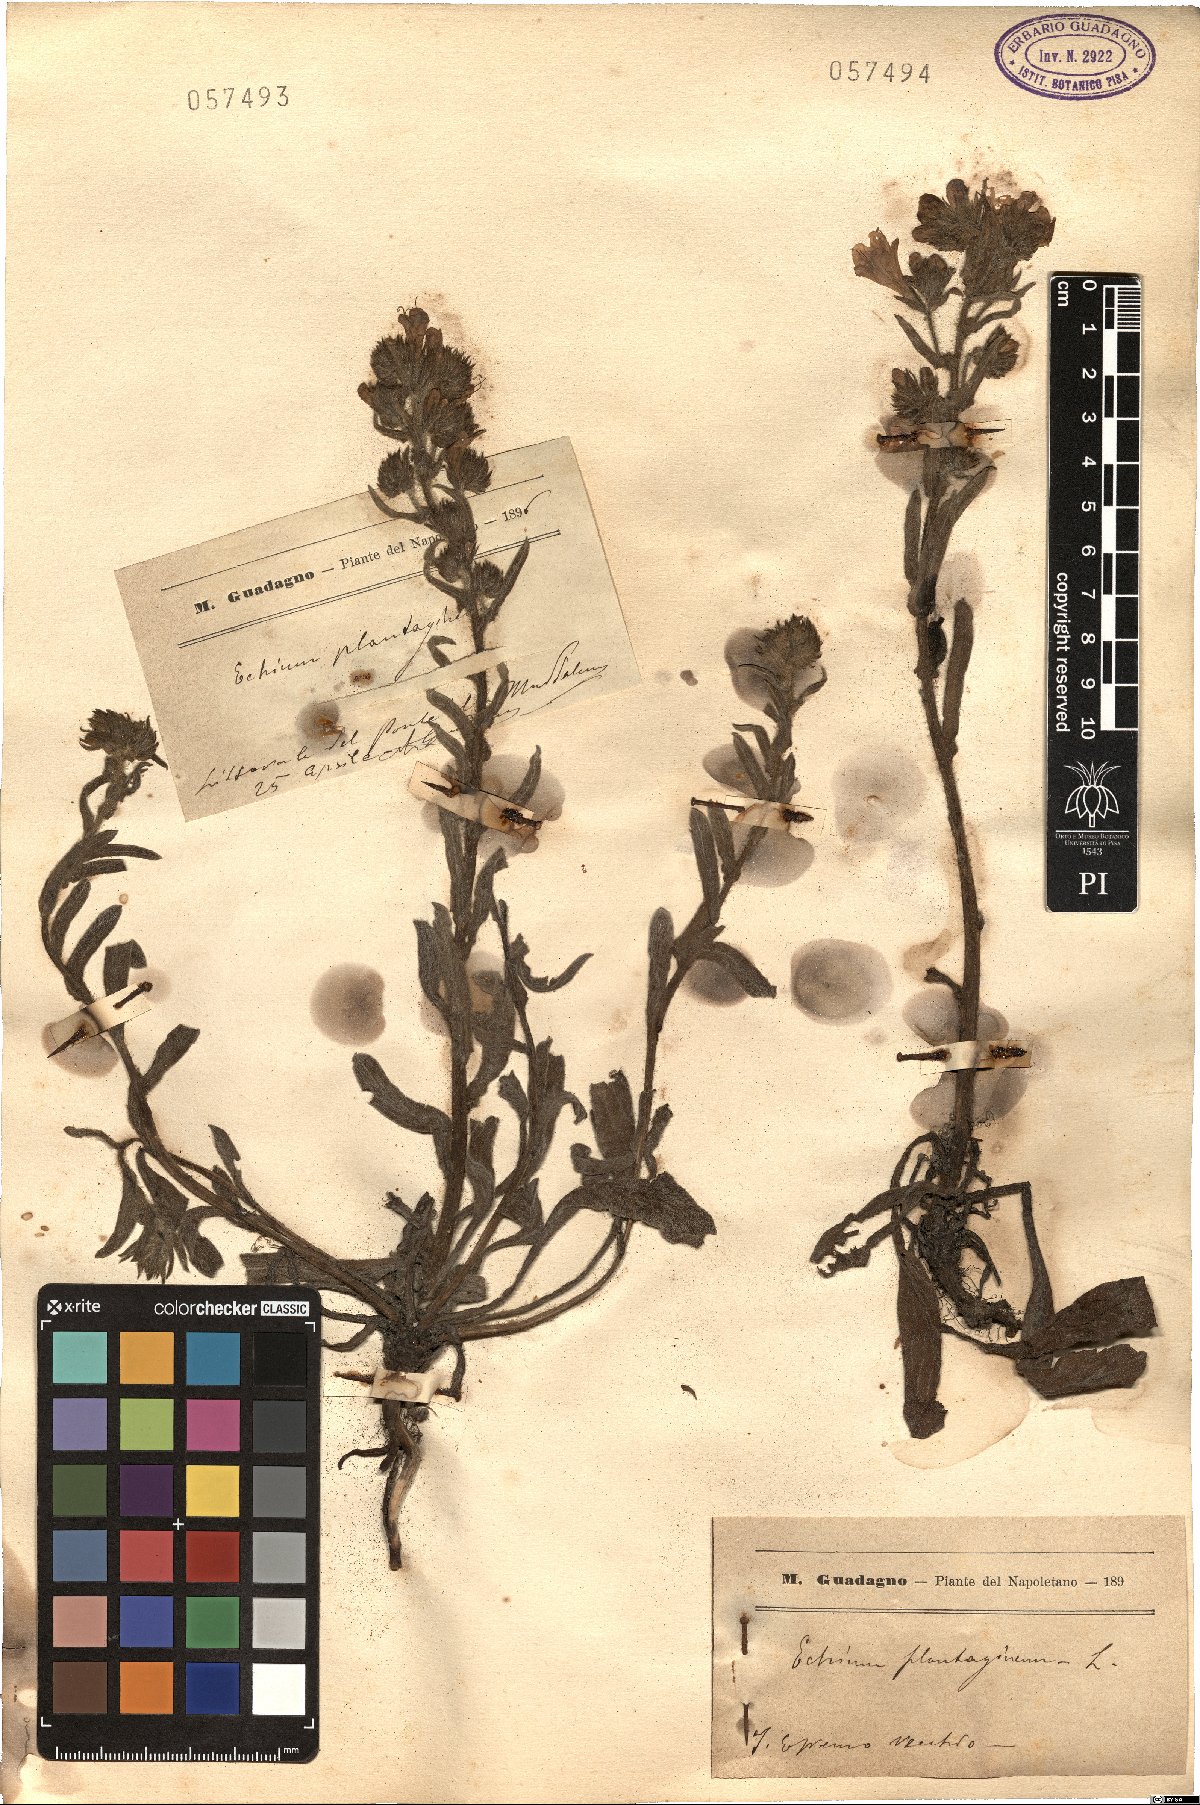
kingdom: Plantae
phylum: Tracheophyta
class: Magnoliopsida
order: Boraginales
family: Boraginaceae
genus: Echium
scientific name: Echium plantagineum
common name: Purple viper's-bugloss
